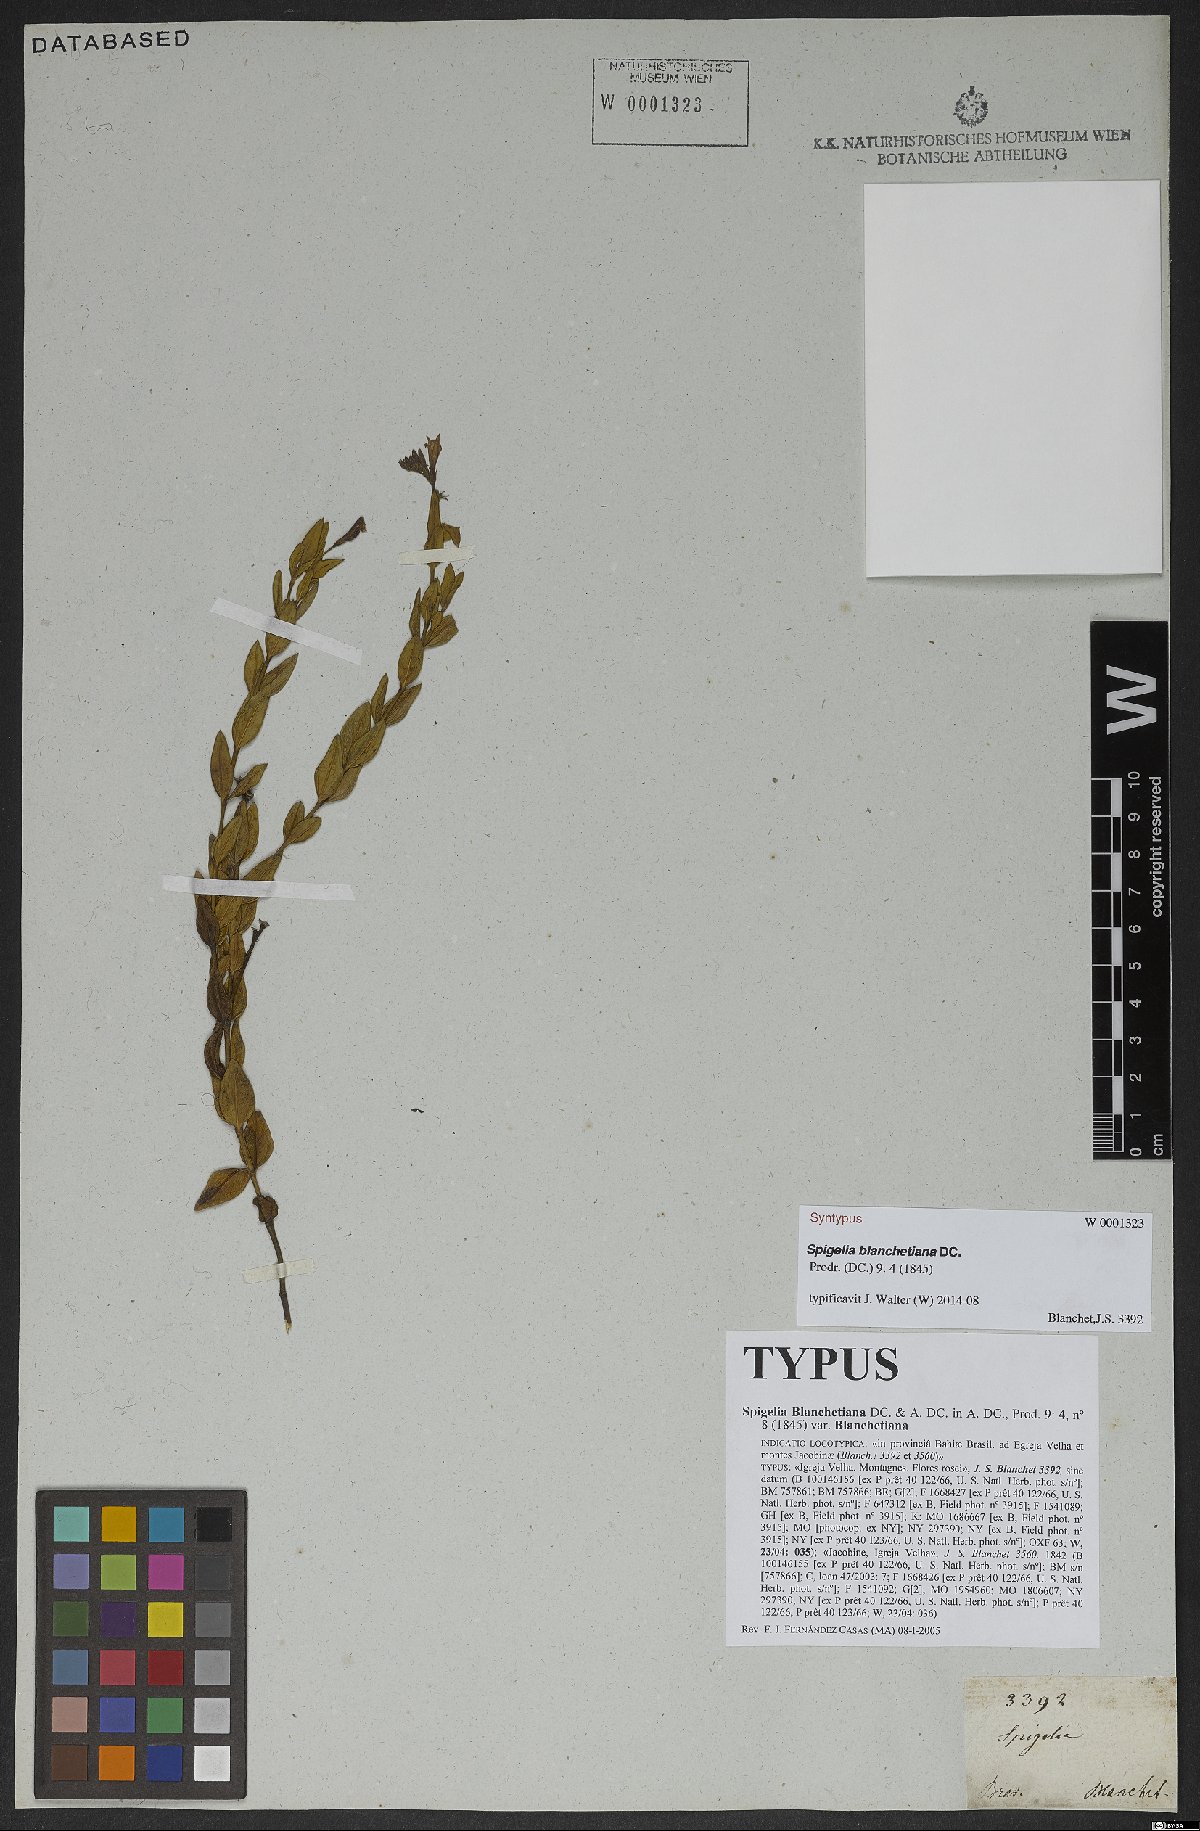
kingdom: Plantae
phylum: Tracheophyta
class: Magnoliopsida
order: Gentianales
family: Loganiaceae
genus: Spigelia
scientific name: Spigelia blanchetiana
